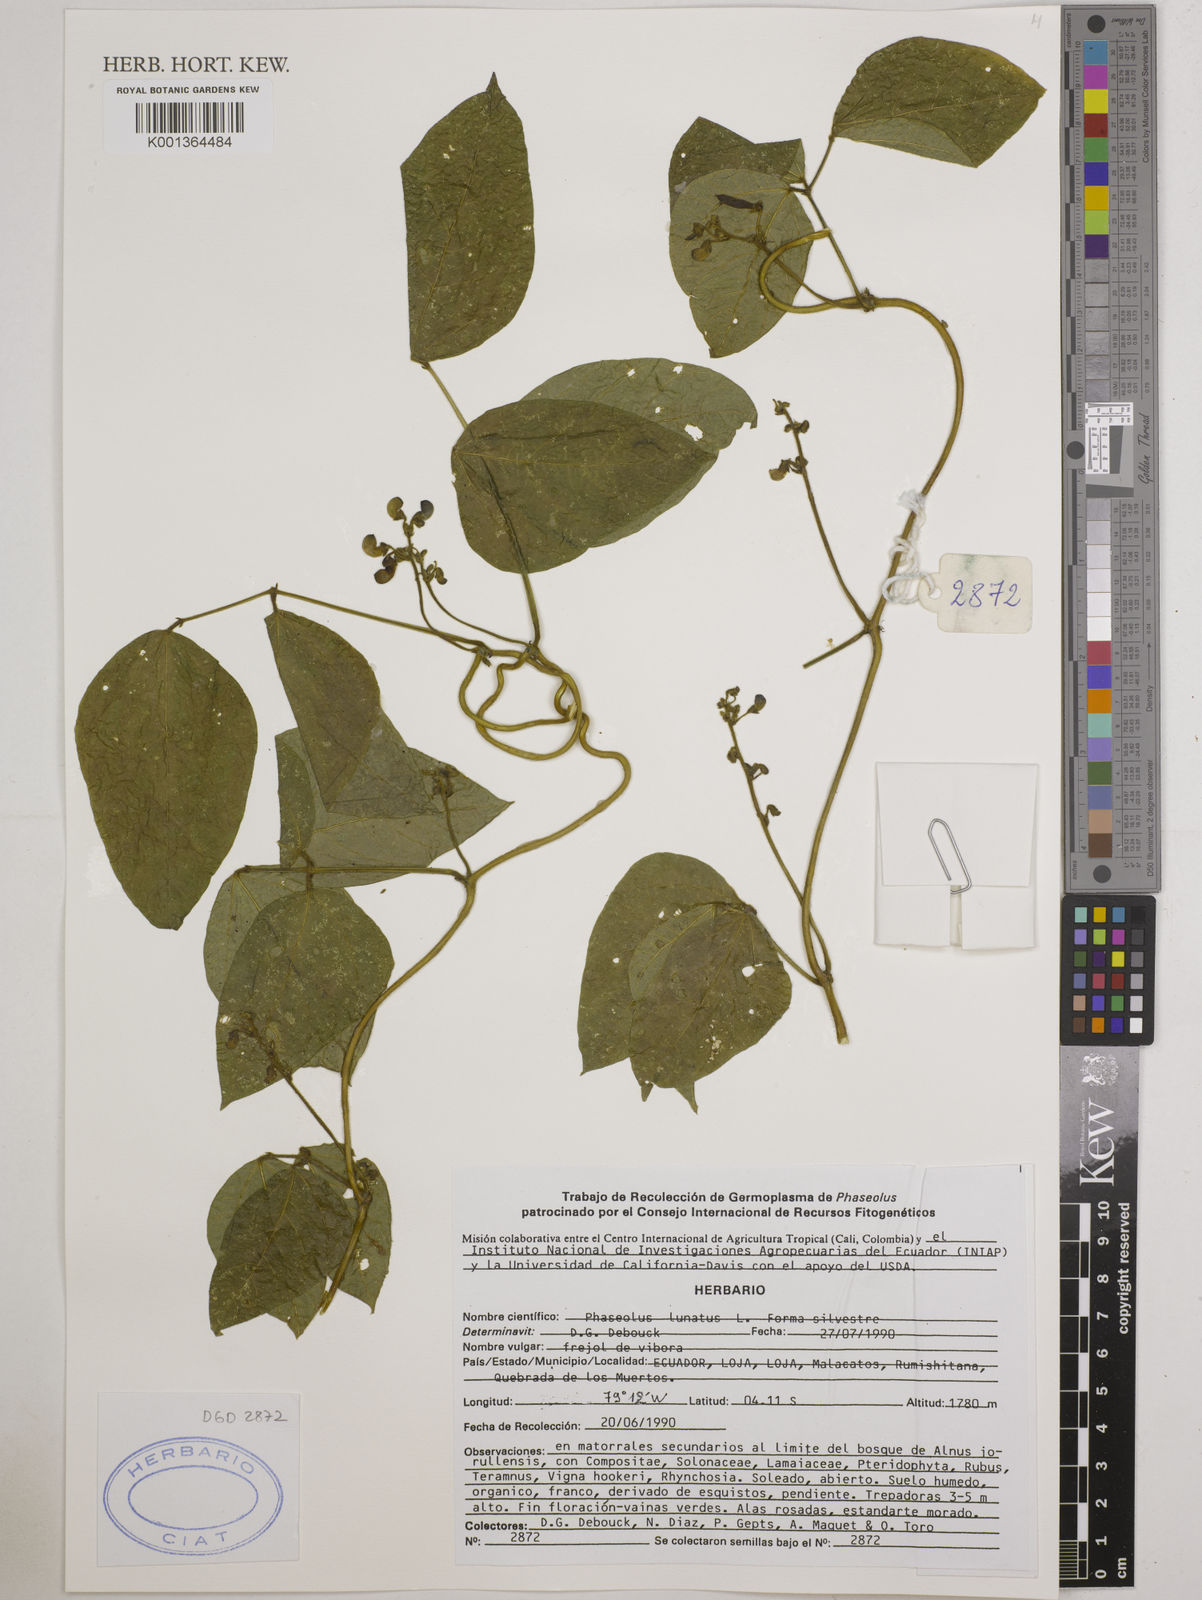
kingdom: Plantae
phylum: Tracheophyta
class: Magnoliopsida
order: Fabales
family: Fabaceae
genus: Phaseolus
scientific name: Phaseolus lunatus
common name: Sieva bean
